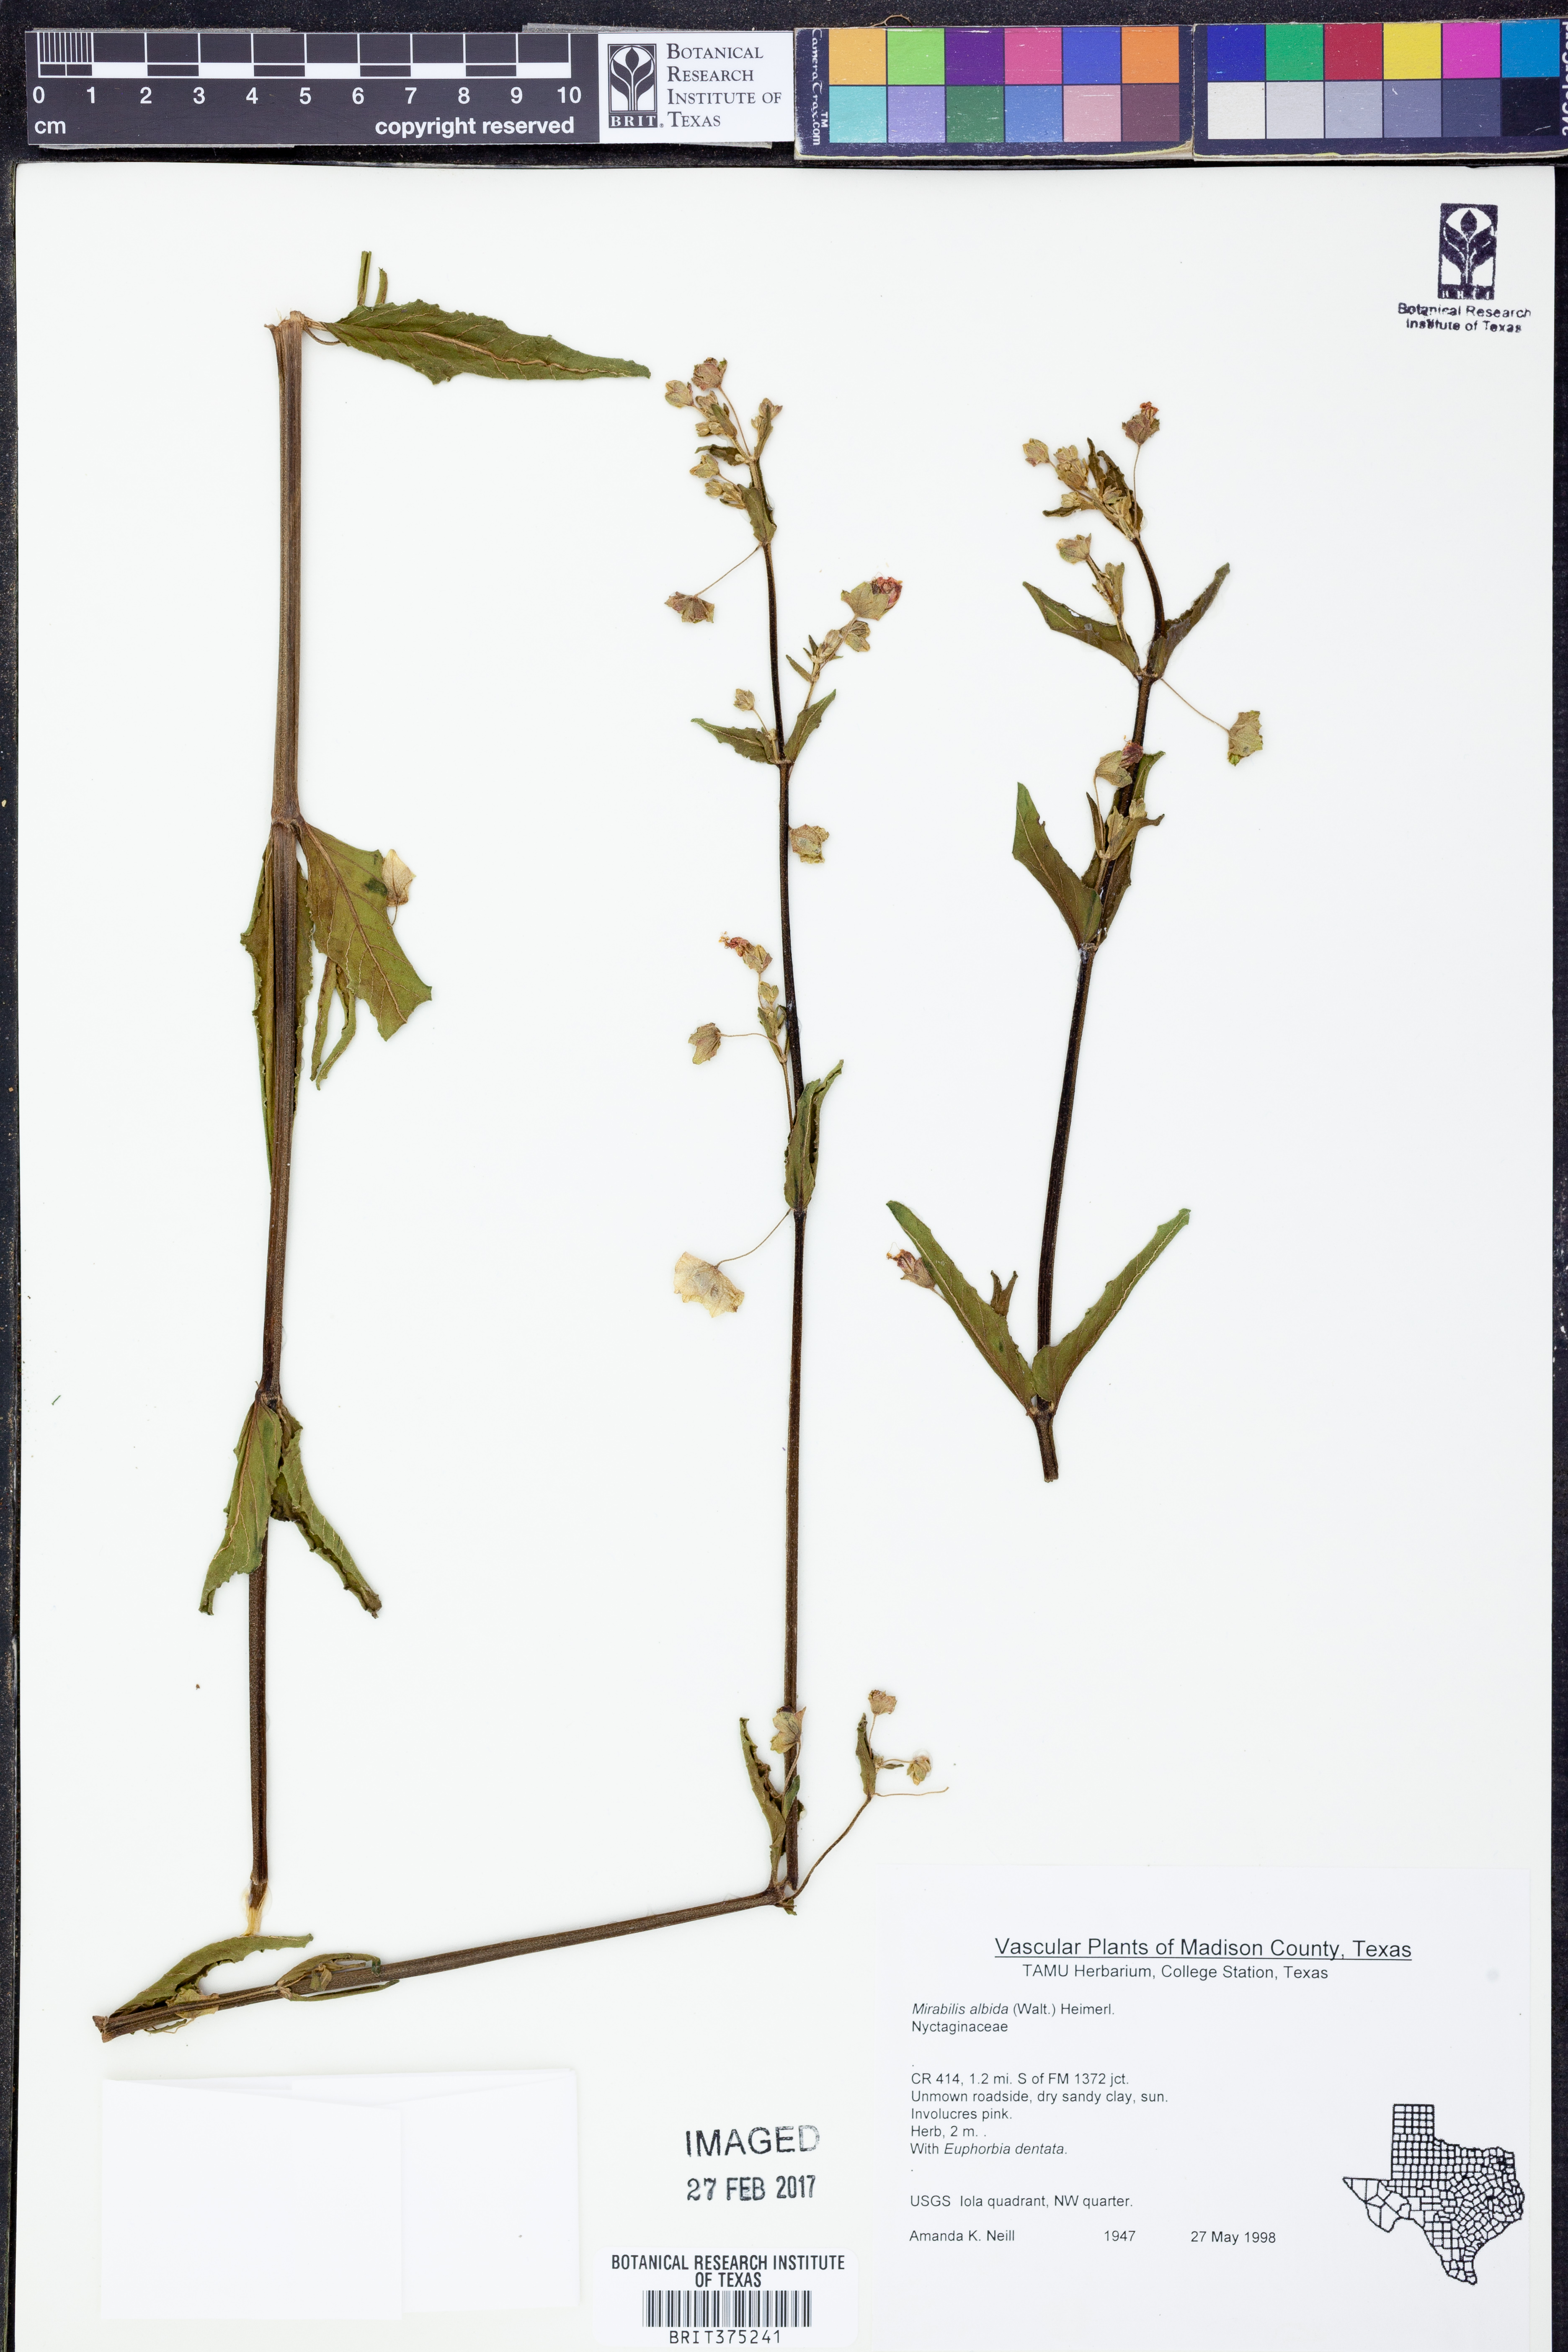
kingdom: Plantae
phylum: Tracheophyta
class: Magnoliopsida
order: Caryophyllales
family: Nyctaginaceae
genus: Mirabilis
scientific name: Mirabilis albida
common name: Hairy four-o'clock
